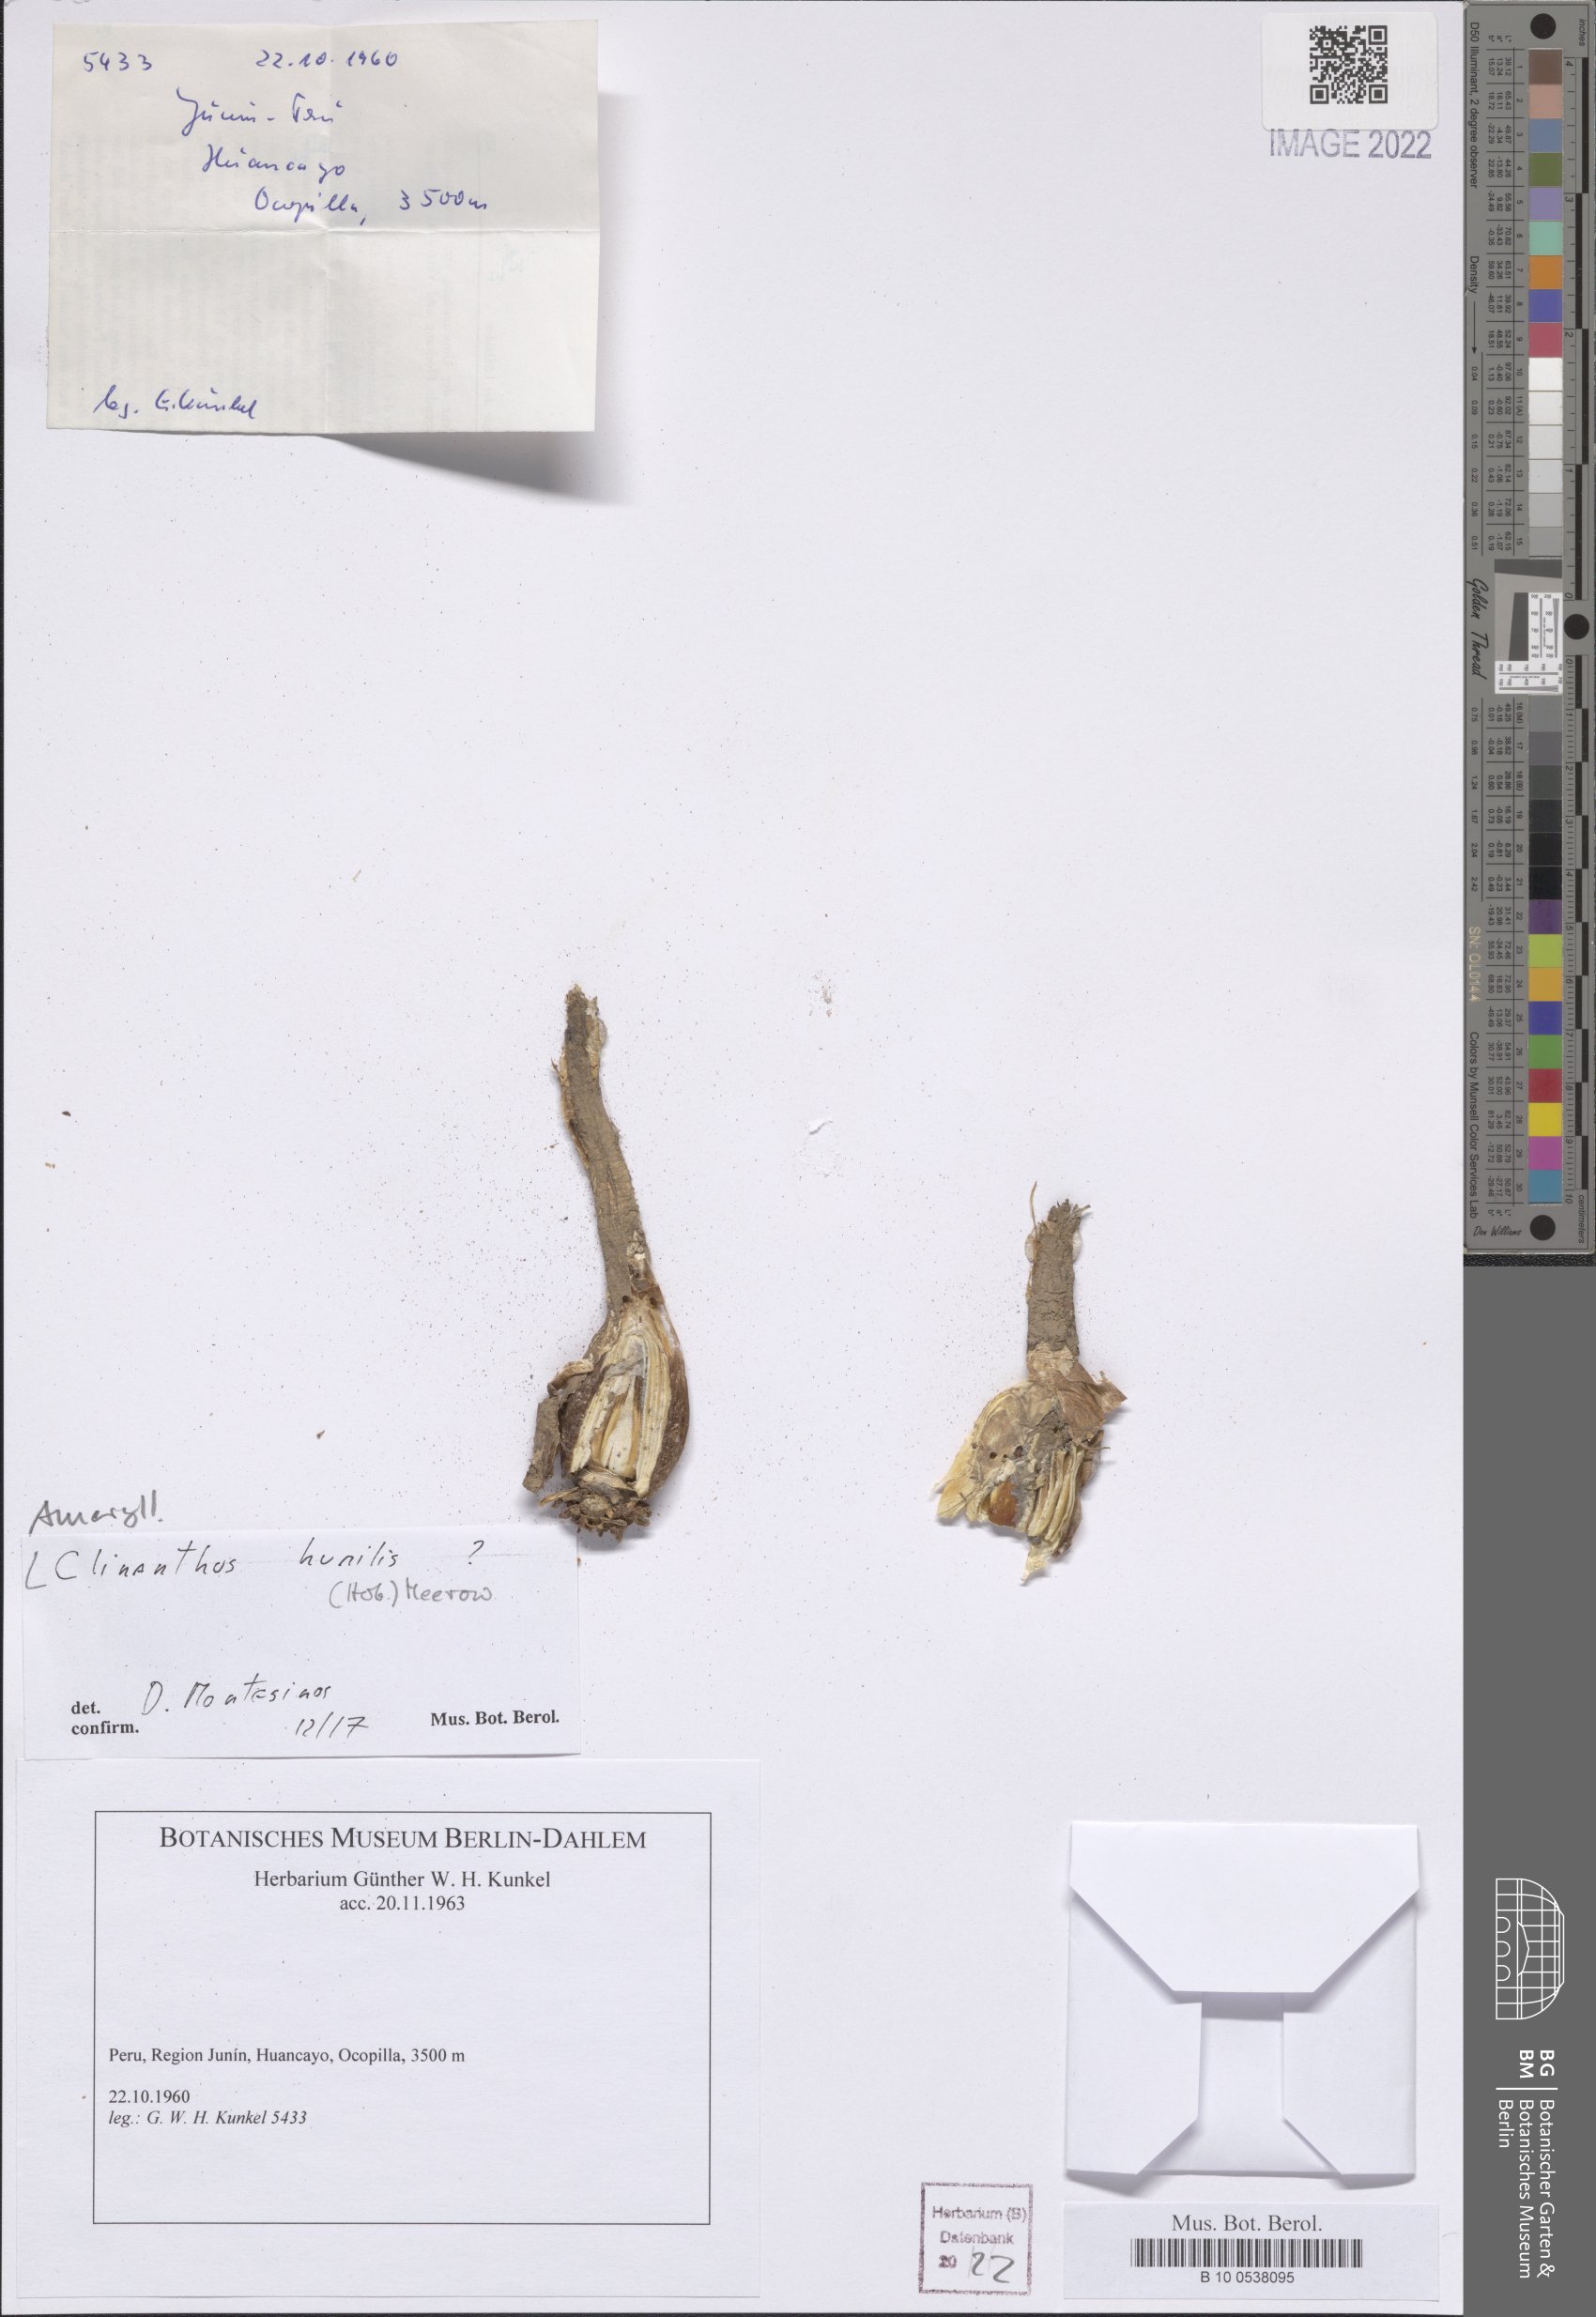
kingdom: Plantae
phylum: Tracheophyta
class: Liliopsida
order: Asparagales
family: Amaryllidaceae
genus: Clinanthus
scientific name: Clinanthus humilis
